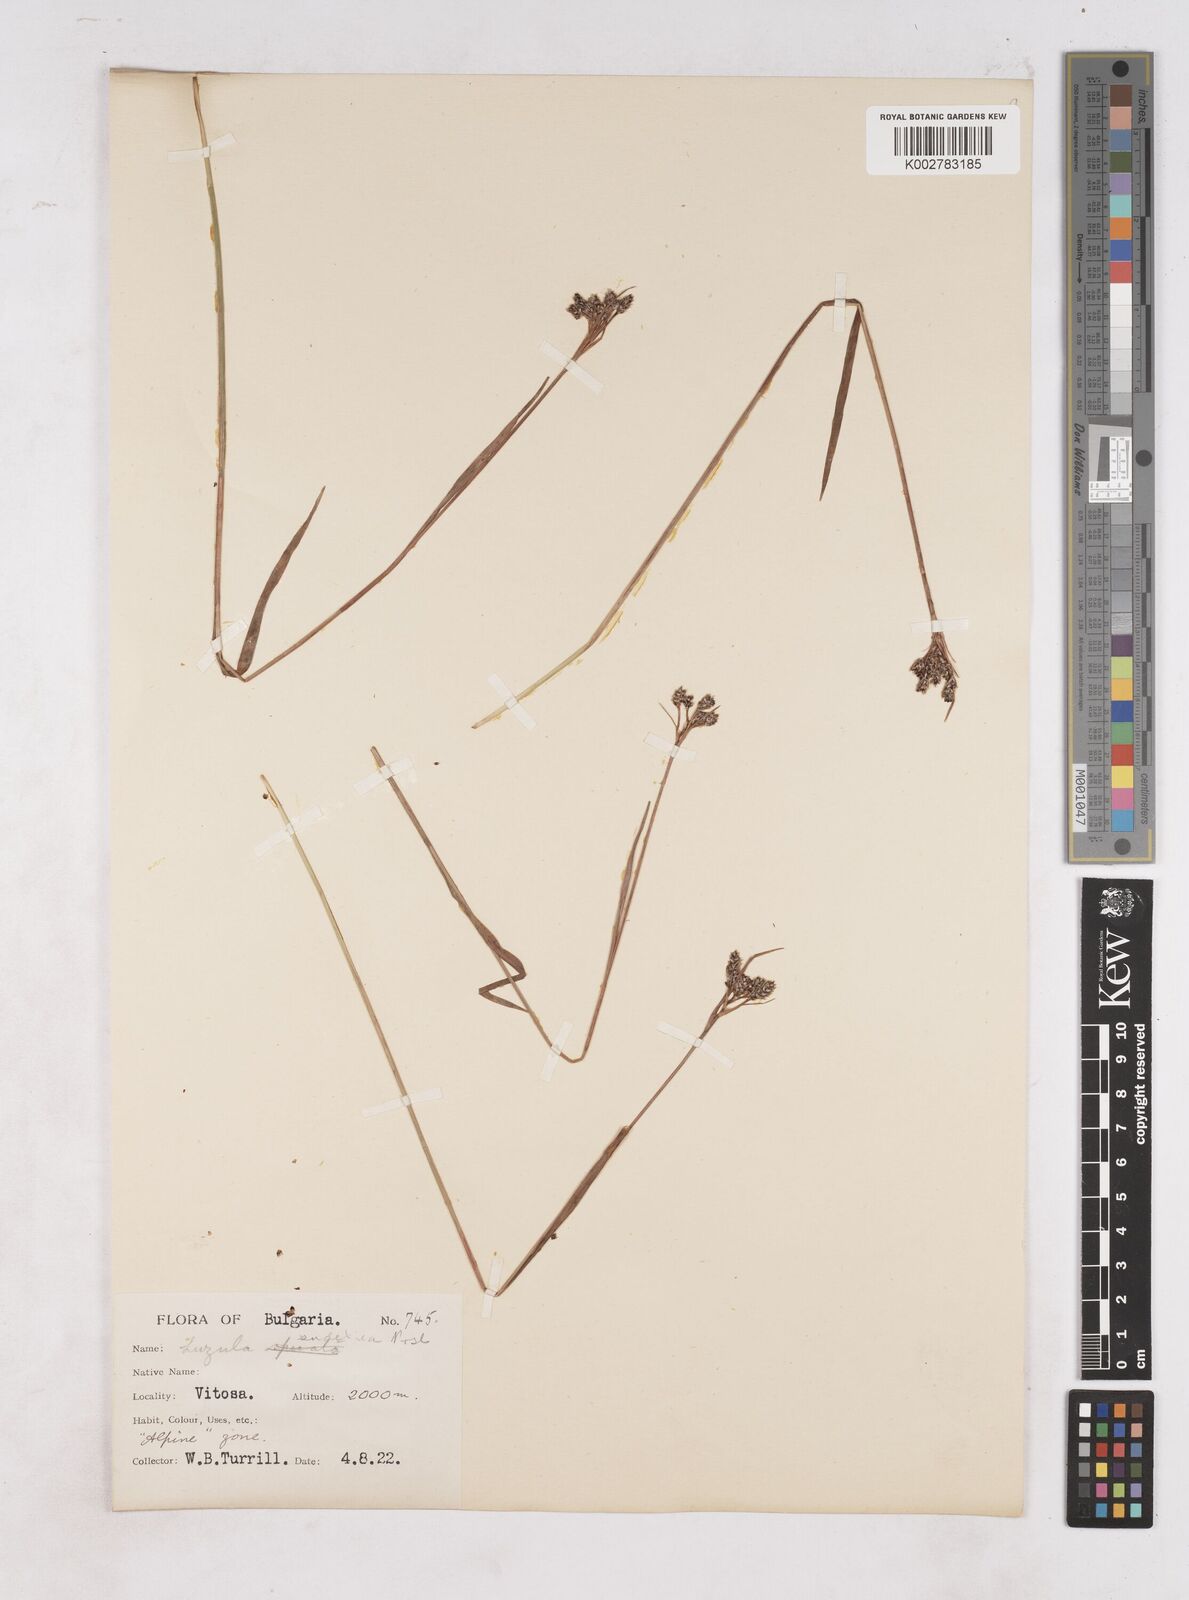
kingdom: Plantae
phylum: Tracheophyta
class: Liliopsida
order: Poales
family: Juncaceae
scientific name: Juncaceae
